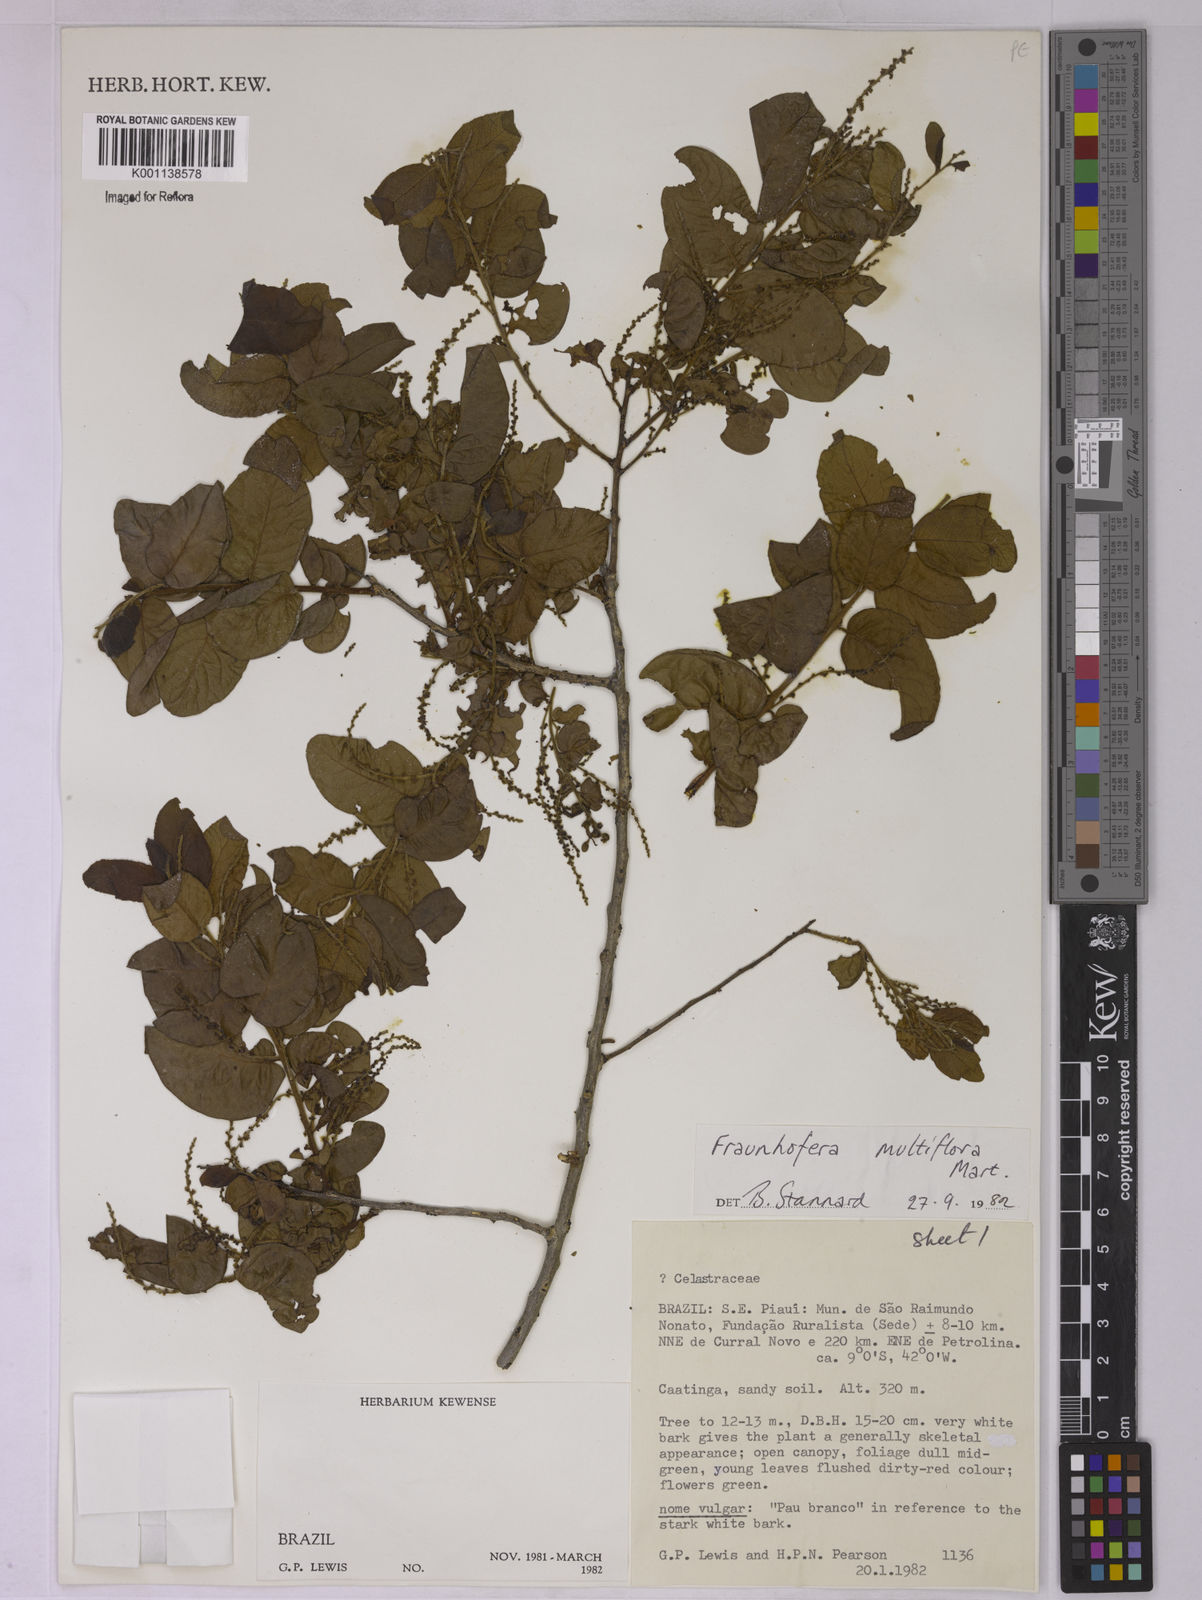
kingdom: Plantae
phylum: Tracheophyta
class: Magnoliopsida
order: Celastrales
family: Celastraceae
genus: Fraunhofera
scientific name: Fraunhofera multiflora
